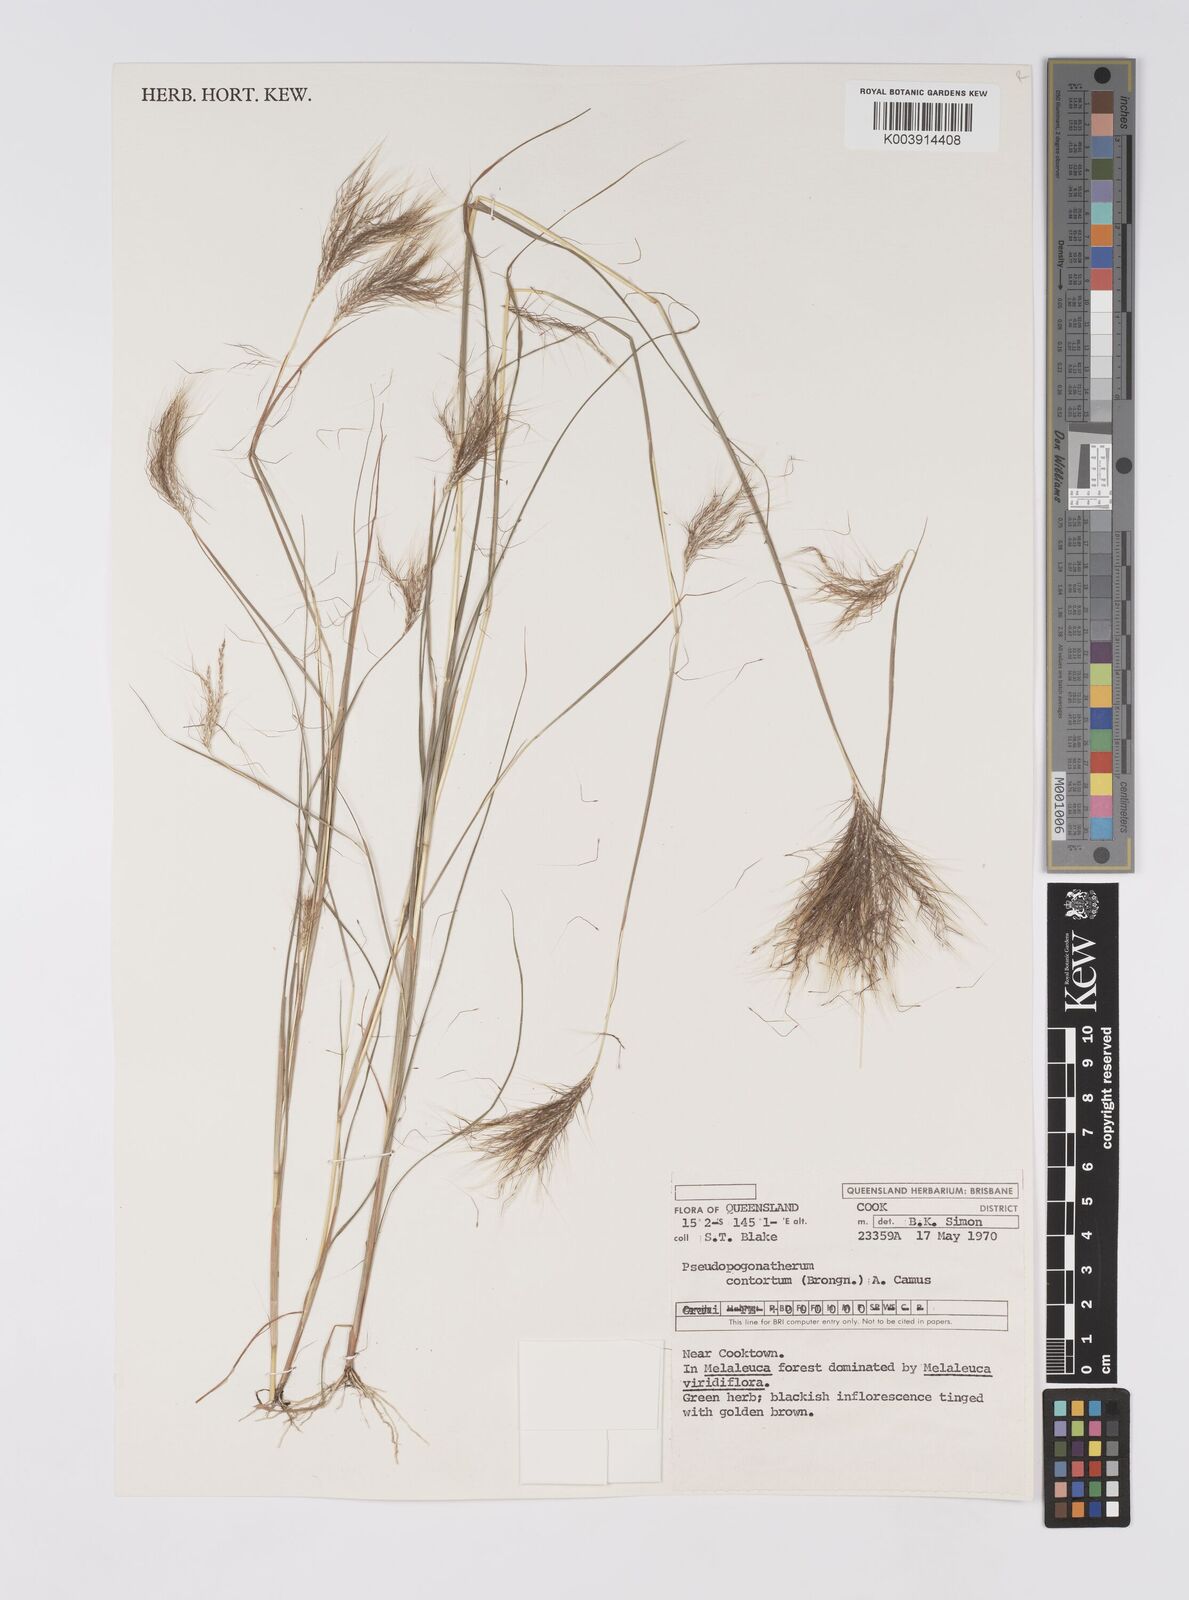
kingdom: Plantae
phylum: Tracheophyta
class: Liliopsida
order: Poales
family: Poaceae
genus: Pseudopogonatherum
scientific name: Pseudopogonatherum contortum
